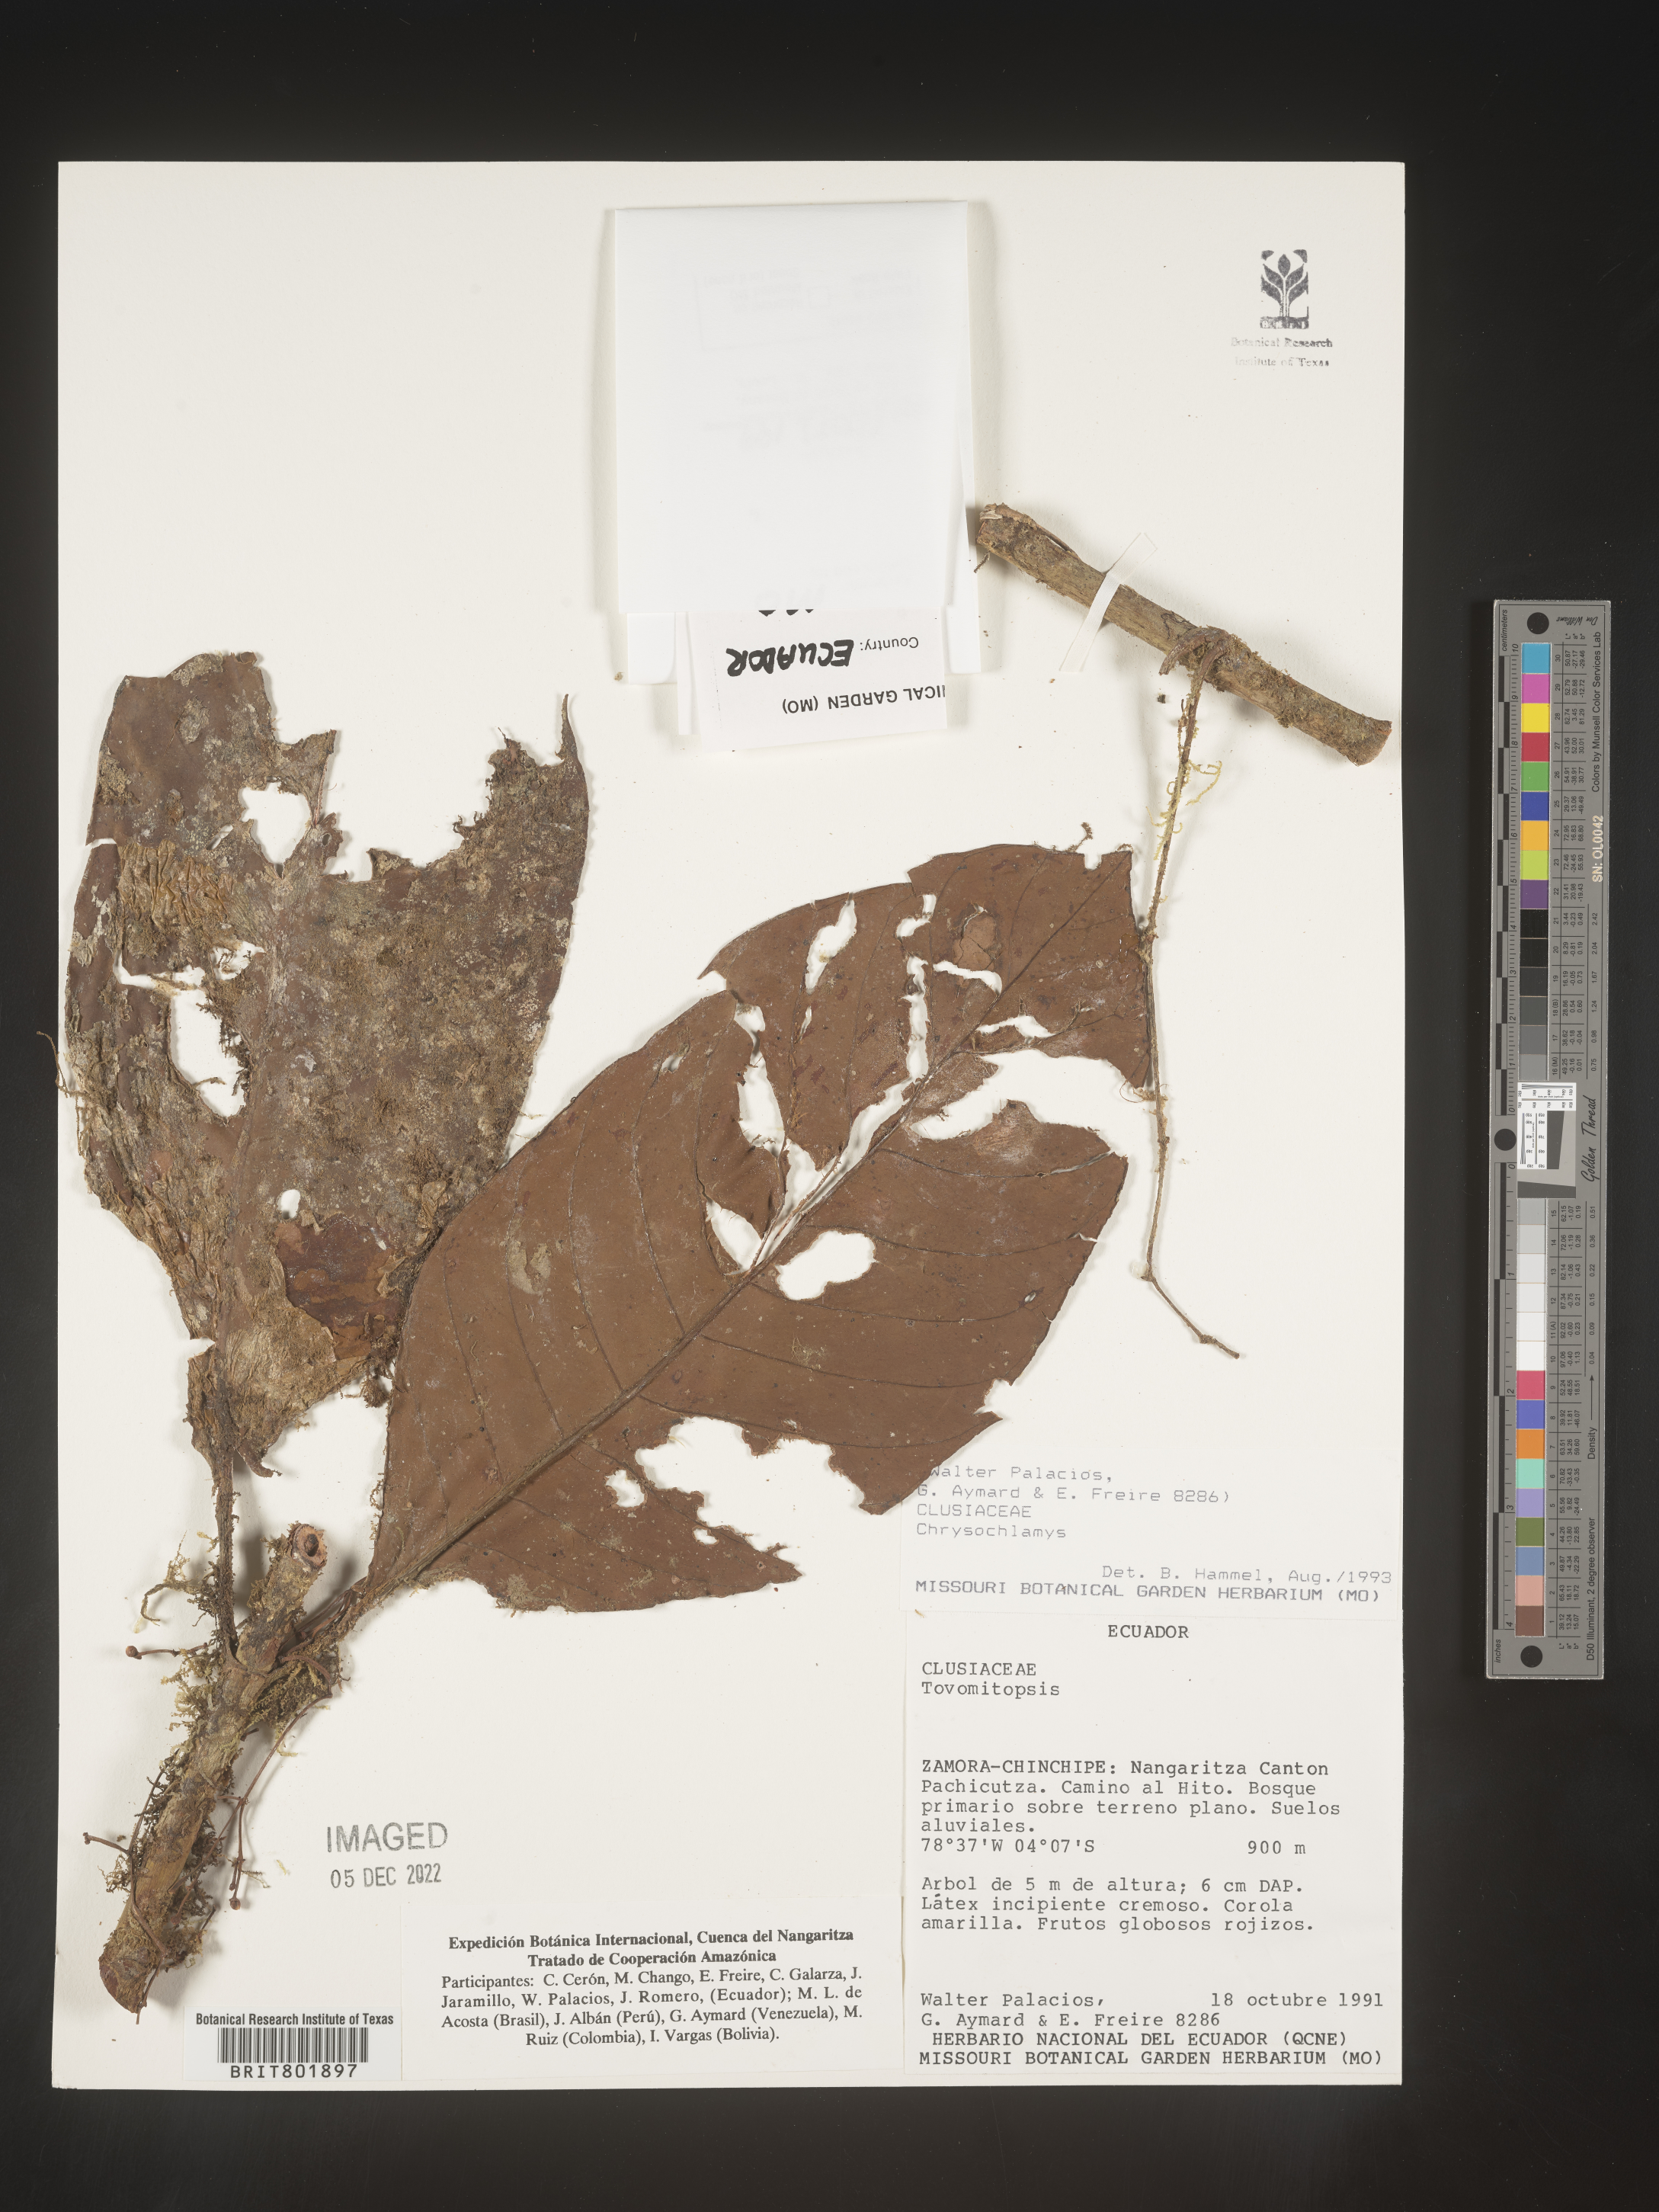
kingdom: Plantae
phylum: Tracheophyta
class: Magnoliopsida
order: Malpighiales
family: Clusiaceae
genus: Chrysochlamys
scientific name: Chrysochlamys
